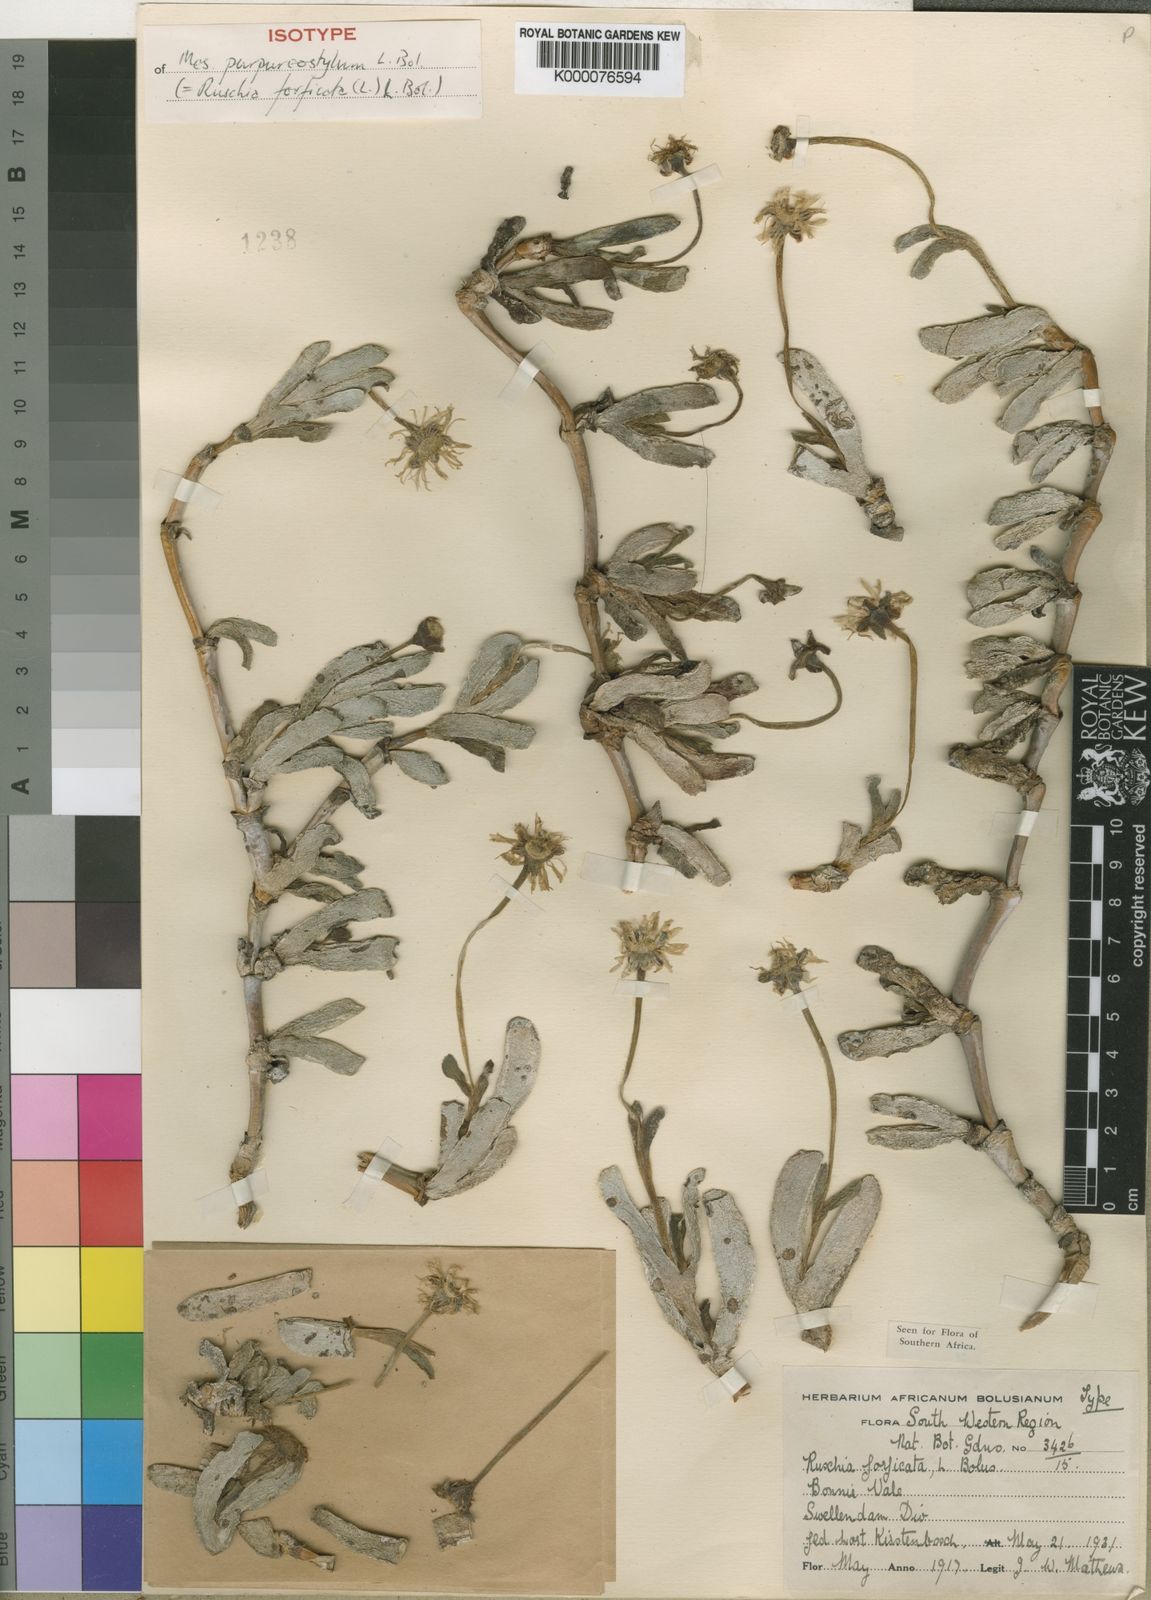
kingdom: Plantae
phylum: Tracheophyta
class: Magnoliopsida
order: Caryophyllales
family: Aizoaceae
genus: Brianhuntleya
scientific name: Brianhuntleya purpureostyla
